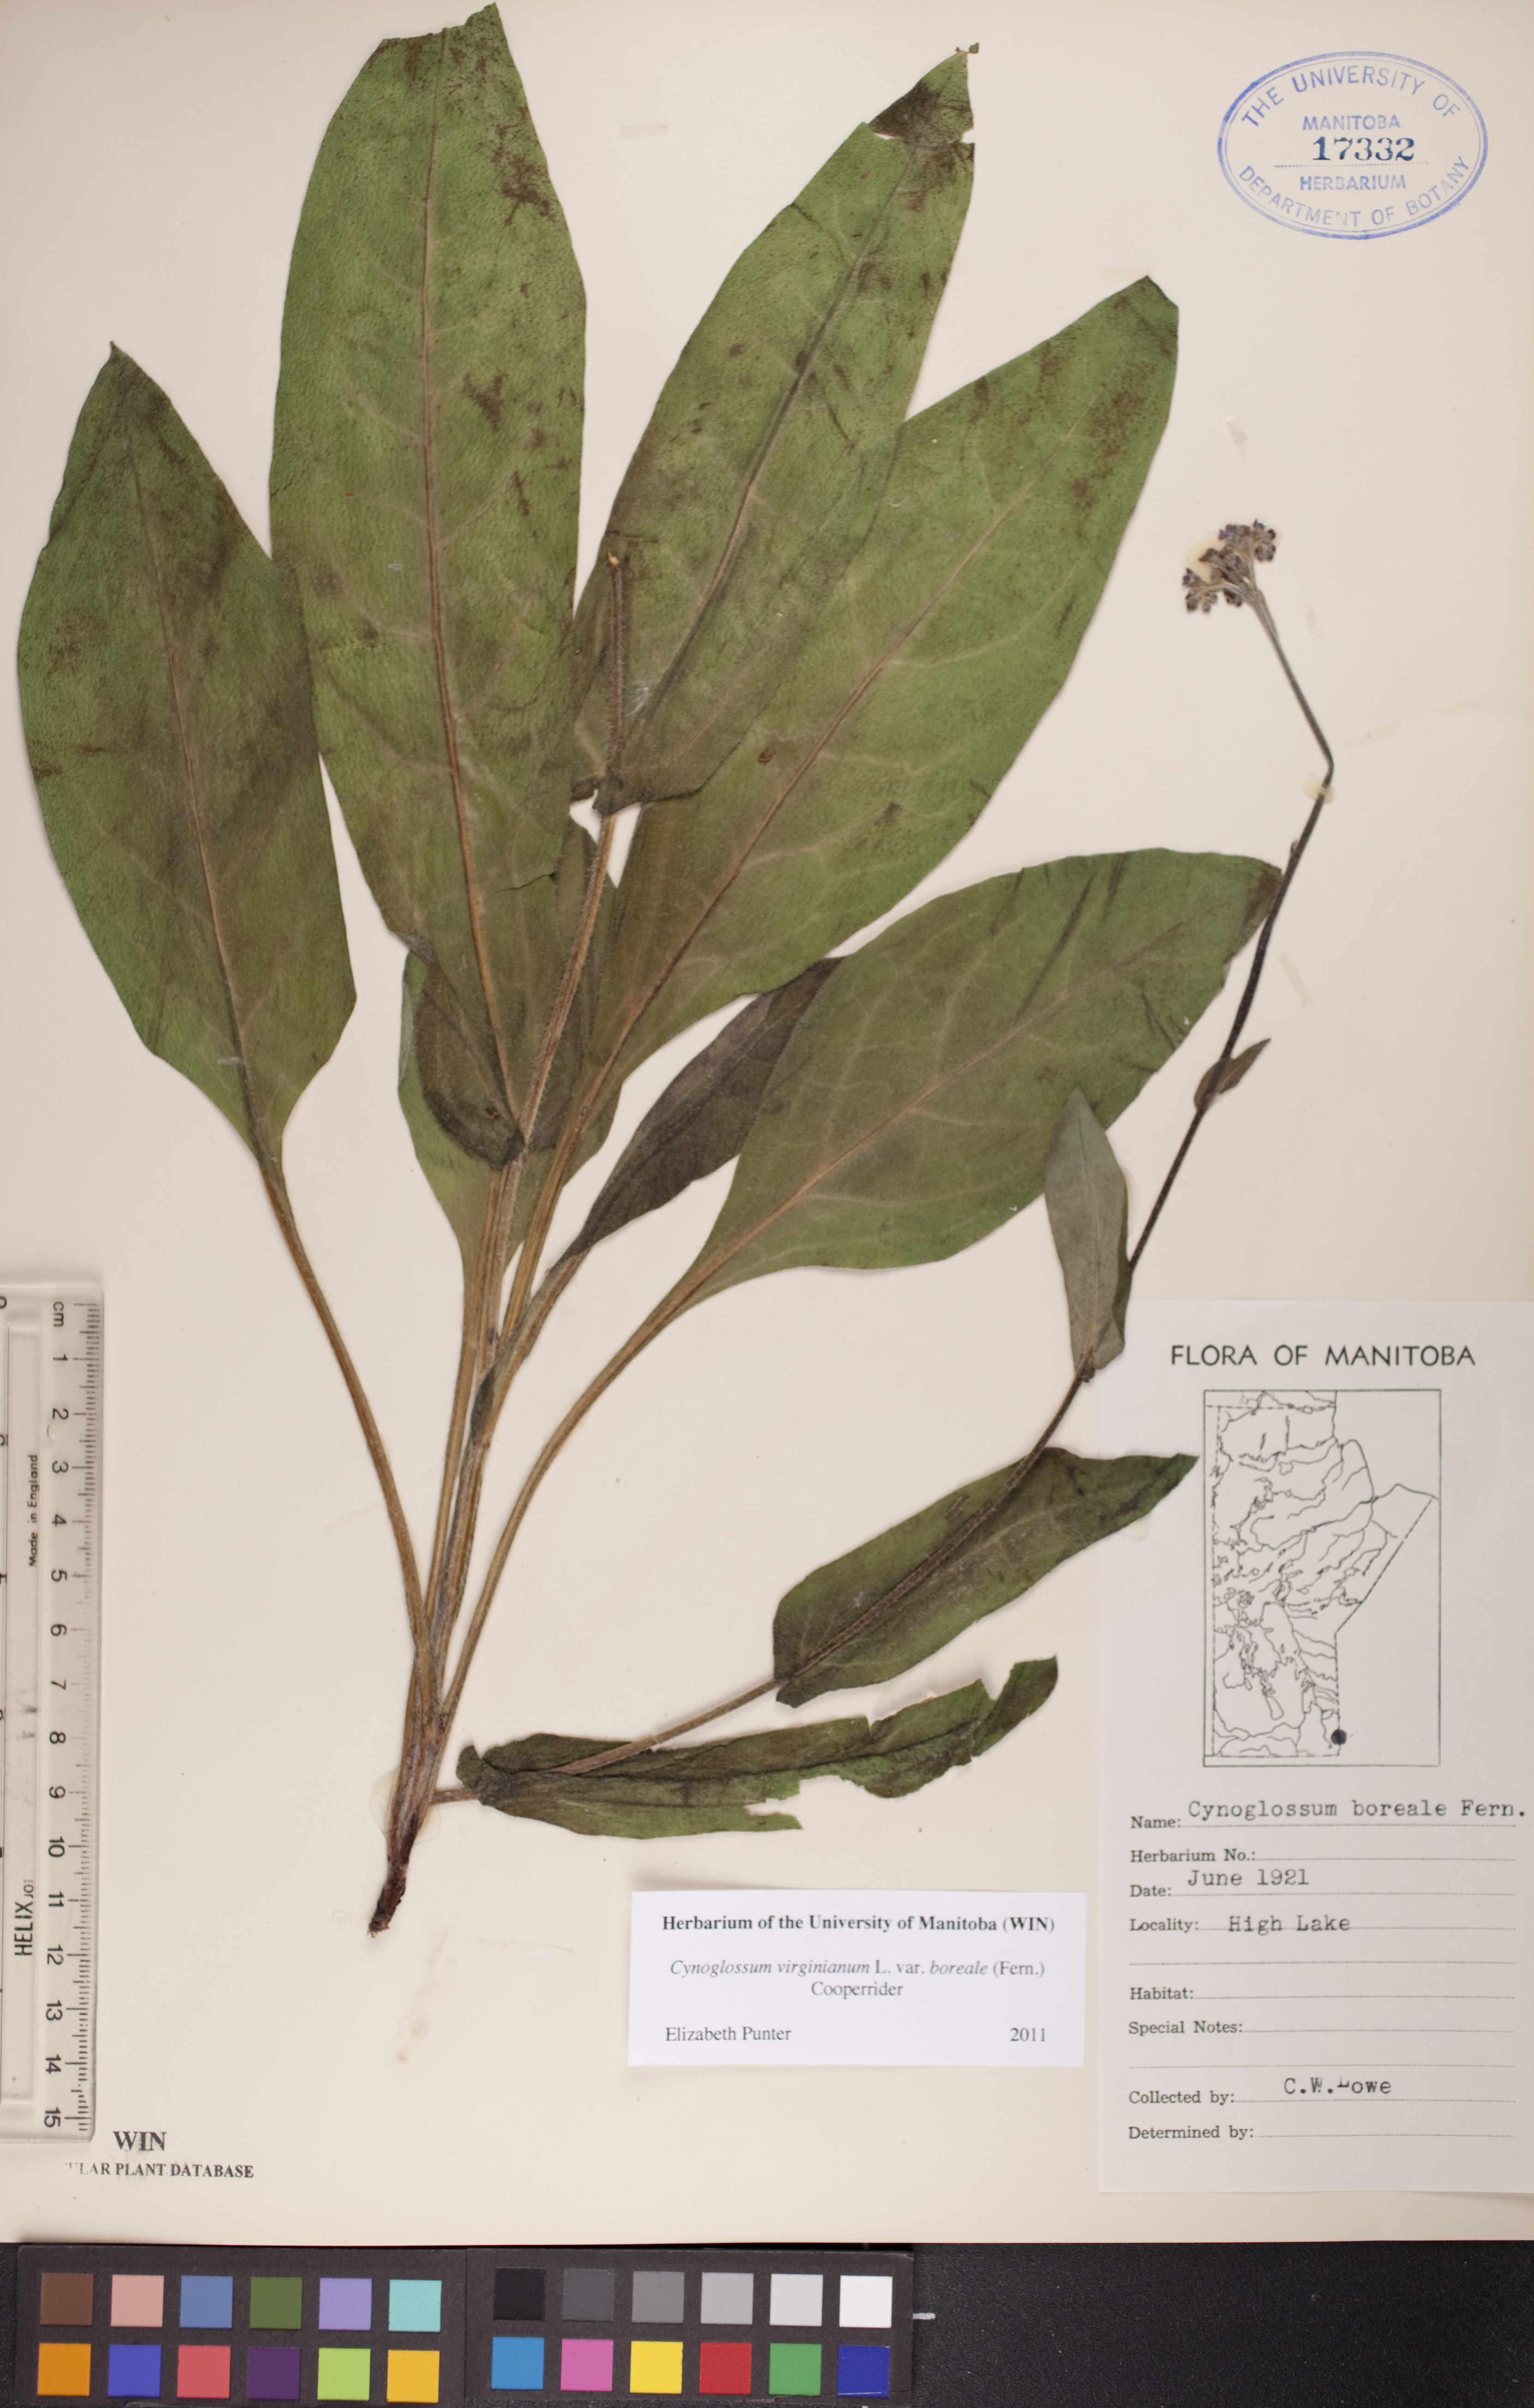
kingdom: Plantae
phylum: Tracheophyta
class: Magnoliopsida
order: Boraginales
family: Boraginaceae
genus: Andersonglossum
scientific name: Andersonglossum boreale
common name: Northern hound's-tongue
